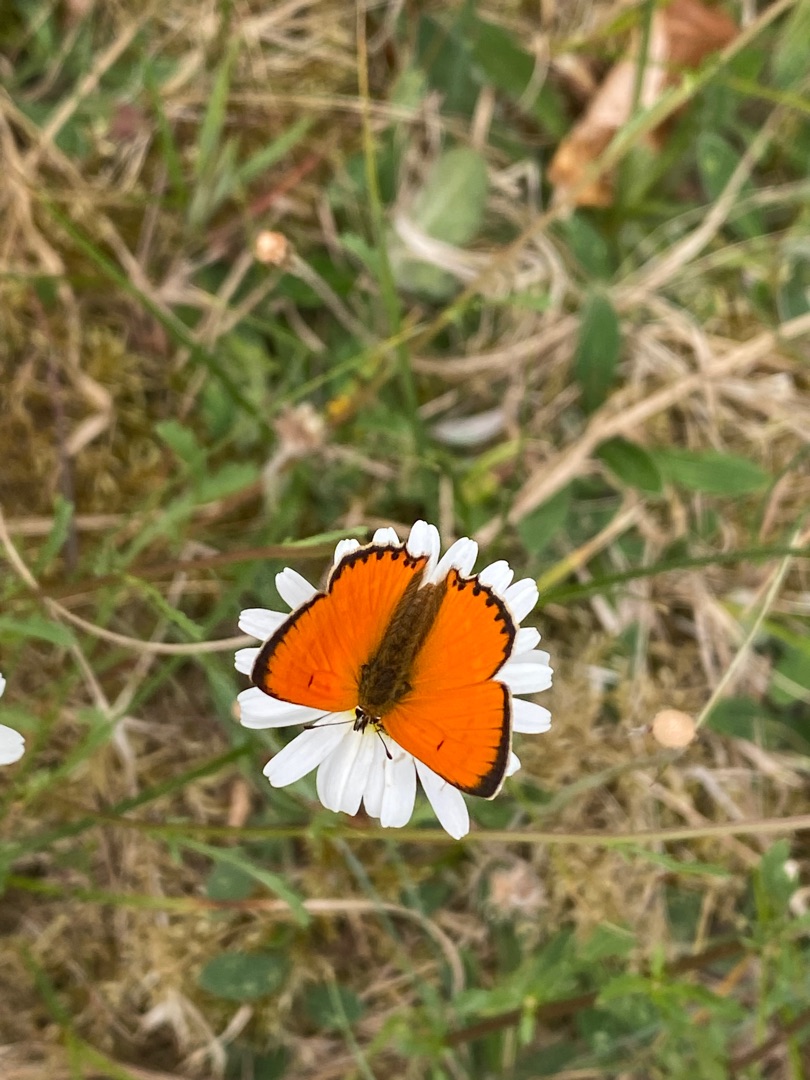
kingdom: Animalia
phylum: Arthropoda
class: Insecta
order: Lepidoptera
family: Lycaenidae
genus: Lycaena
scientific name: Lycaena virgaureae
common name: Dukatsommerfugl
